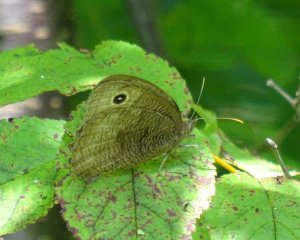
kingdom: Animalia
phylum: Arthropoda
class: Insecta
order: Lepidoptera
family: Nymphalidae
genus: Cercyonis
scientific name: Cercyonis pegala
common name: Common Wood-Nymph
